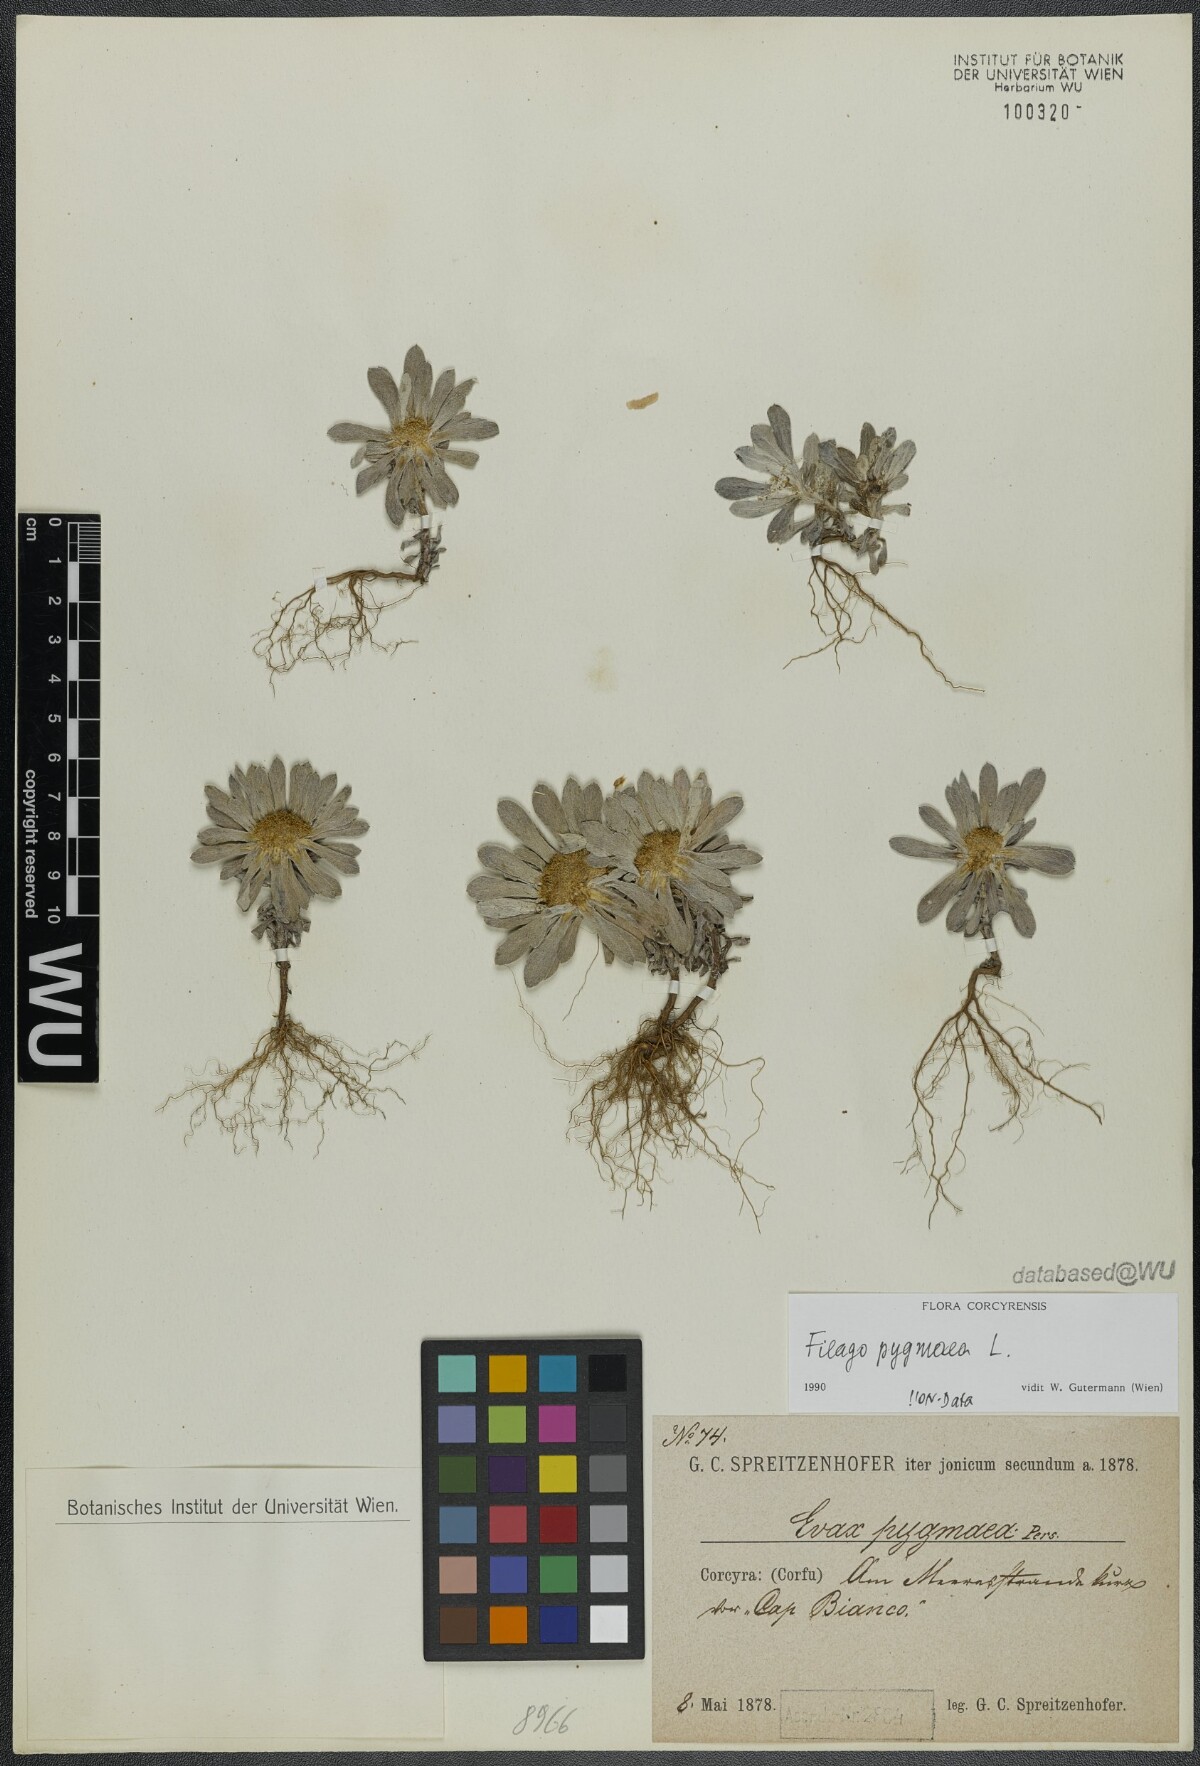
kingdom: Plantae
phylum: Tracheophyta
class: Magnoliopsida
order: Asterales
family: Asteraceae
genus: Filago
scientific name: Filago pygmaea
